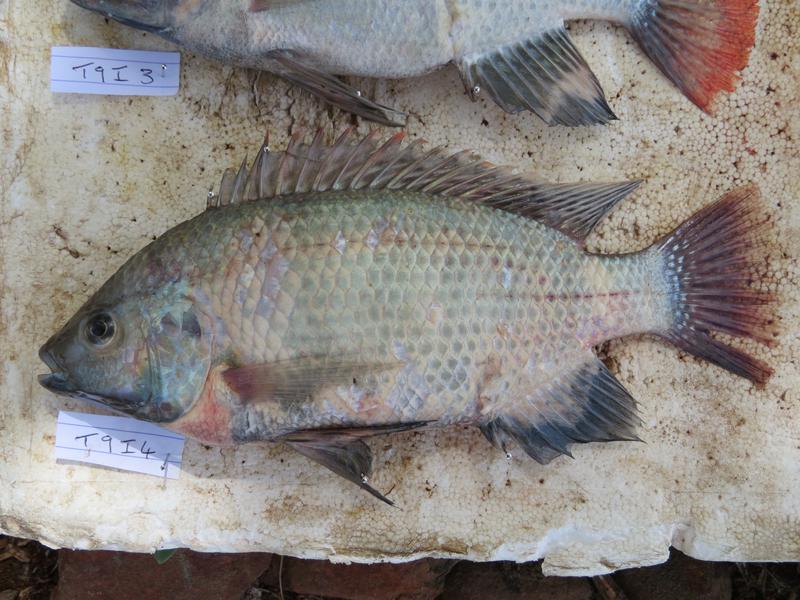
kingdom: Animalia
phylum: Chordata
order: Perciformes
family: Cichlidae
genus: Oreochromis
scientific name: Oreochromis rukwaensis
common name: Lake rukwa tilapia
